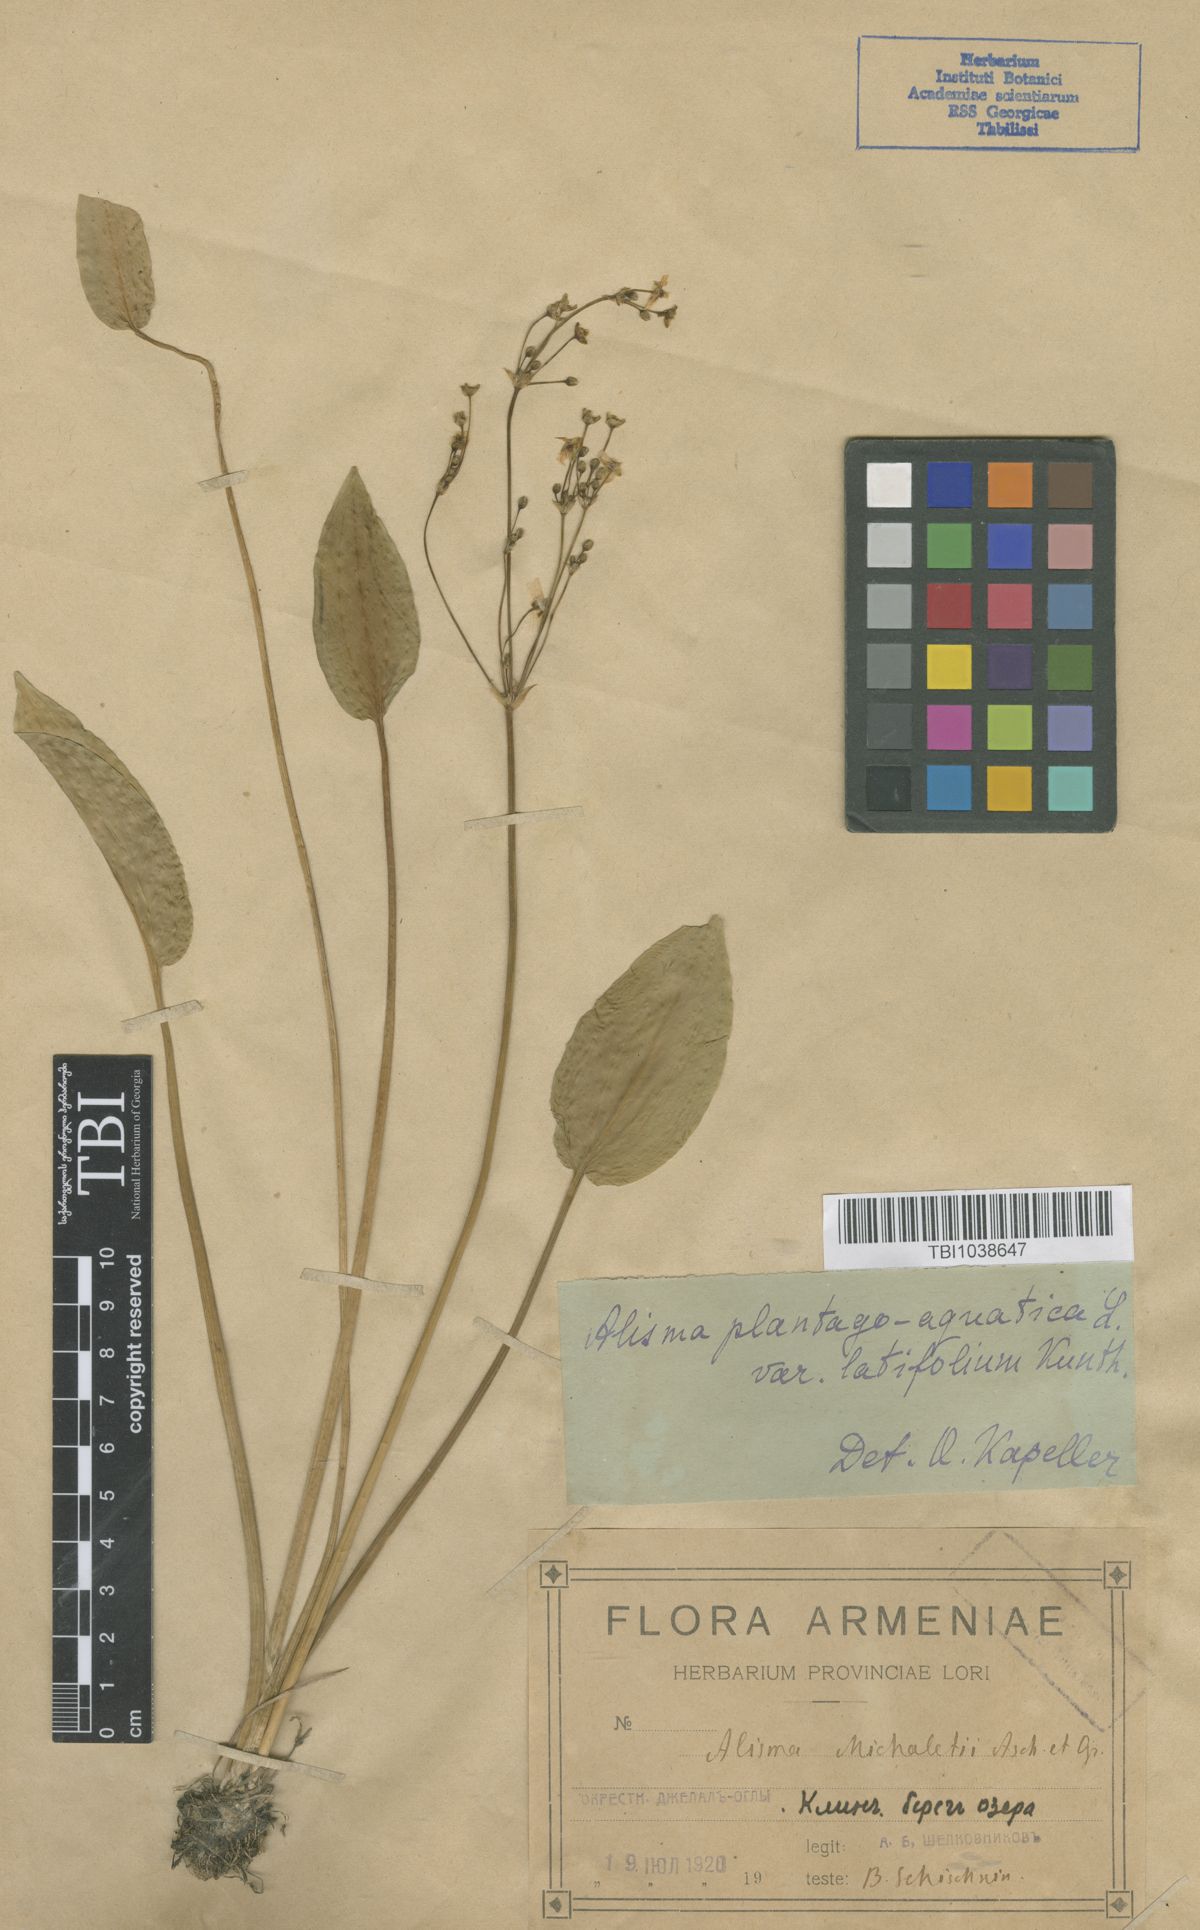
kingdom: Plantae
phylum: Tracheophyta
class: Liliopsida
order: Alismatales
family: Alismataceae
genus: Alisma
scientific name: Alisma plantago-aquatica
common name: Water-plantain
